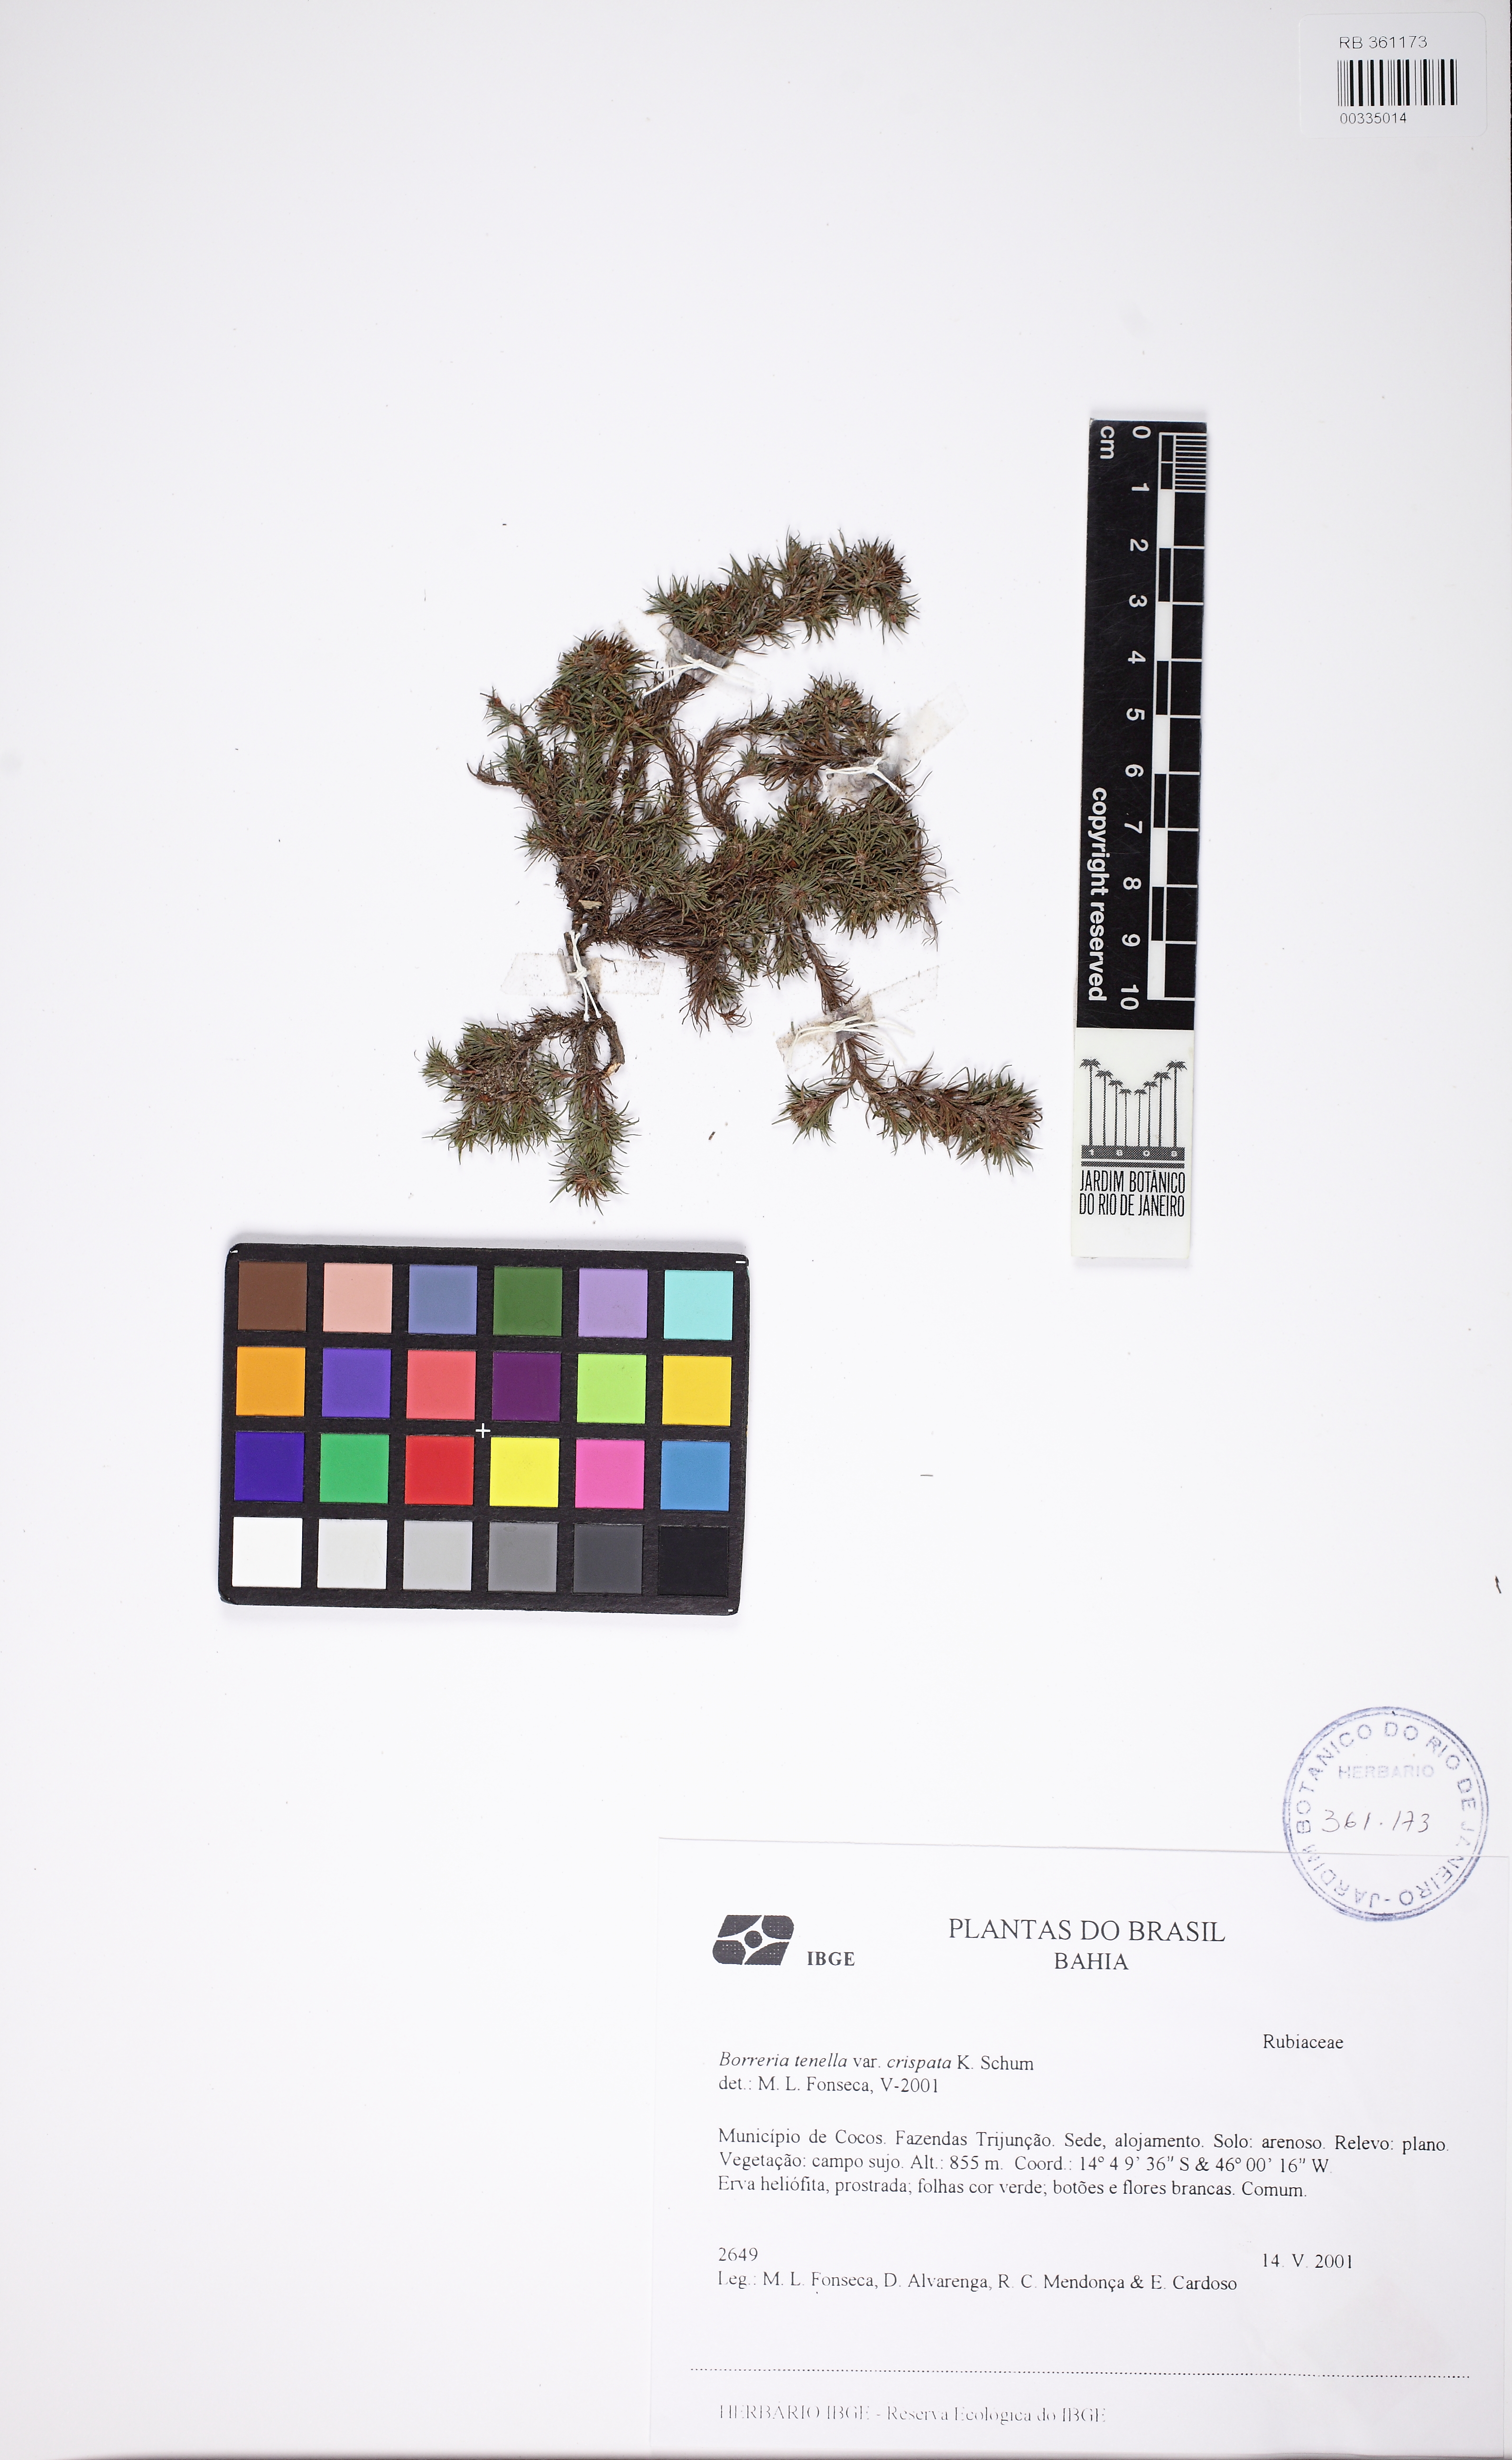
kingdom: Plantae
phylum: Tracheophyta
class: Magnoliopsida
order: Gentianales
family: Rubiaceae
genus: Spermacoce
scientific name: Spermacoce crispata
